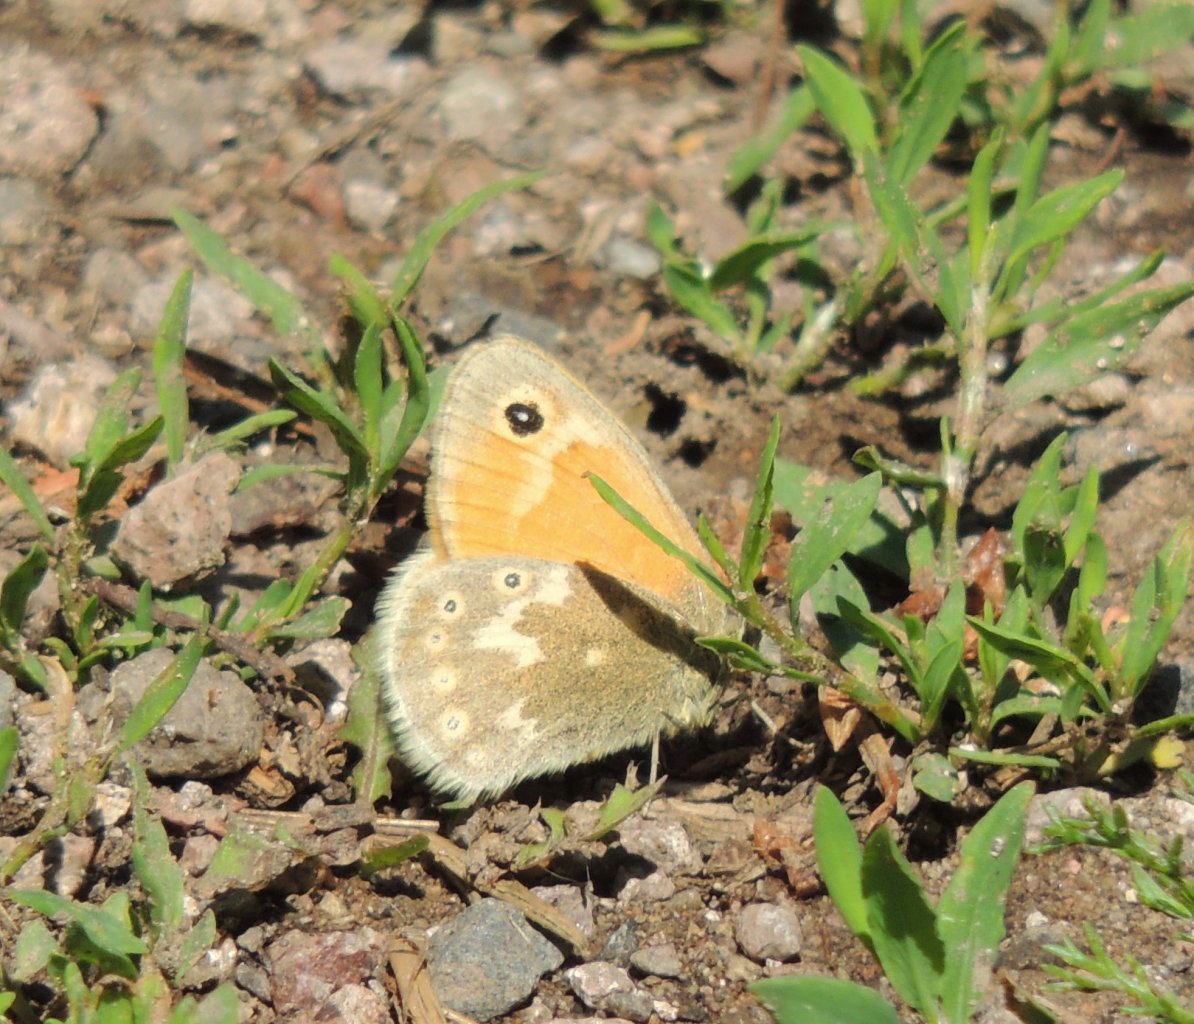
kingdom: Animalia
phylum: Arthropoda
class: Insecta
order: Lepidoptera
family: Nymphalidae
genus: Coenonympha
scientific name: Coenonympha tullia
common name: Large Heath
